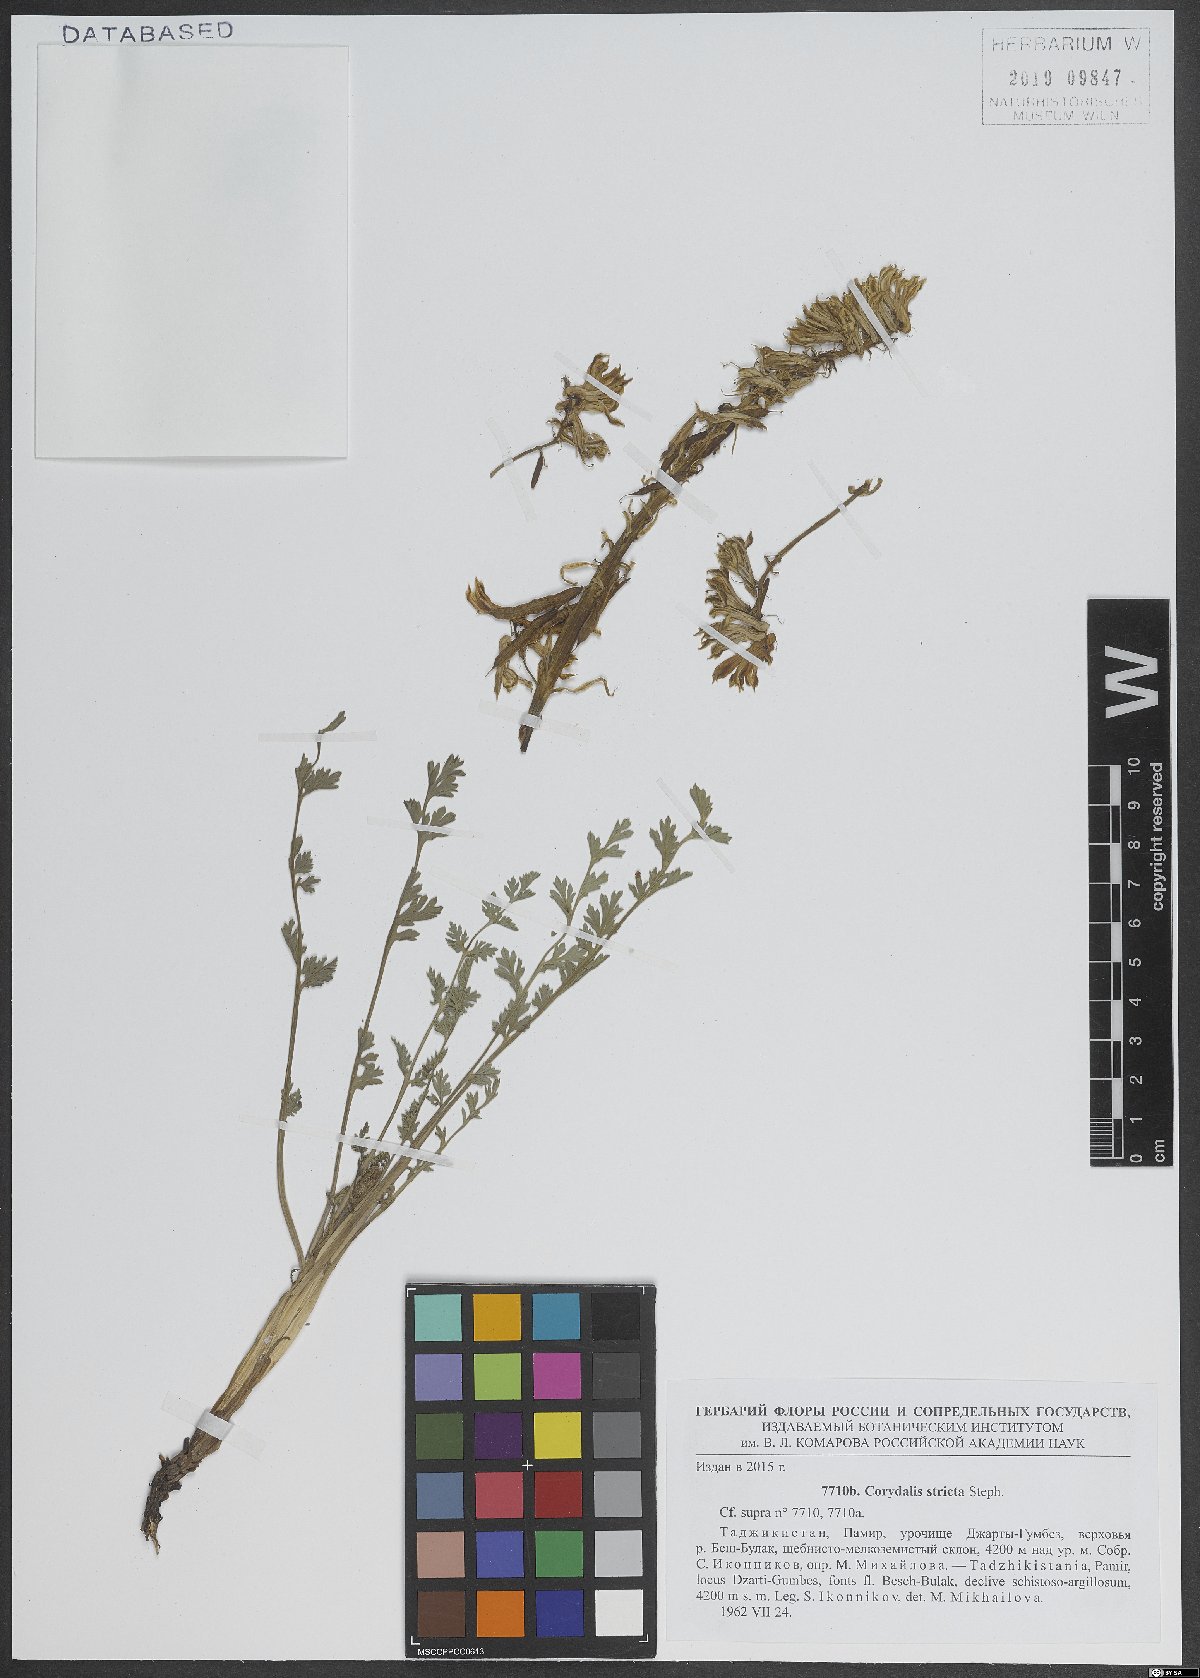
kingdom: Plantae
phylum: Tracheophyta
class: Magnoliopsida
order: Ranunculales
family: Papaveraceae
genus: Corydalis
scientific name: Corydalis stricta
